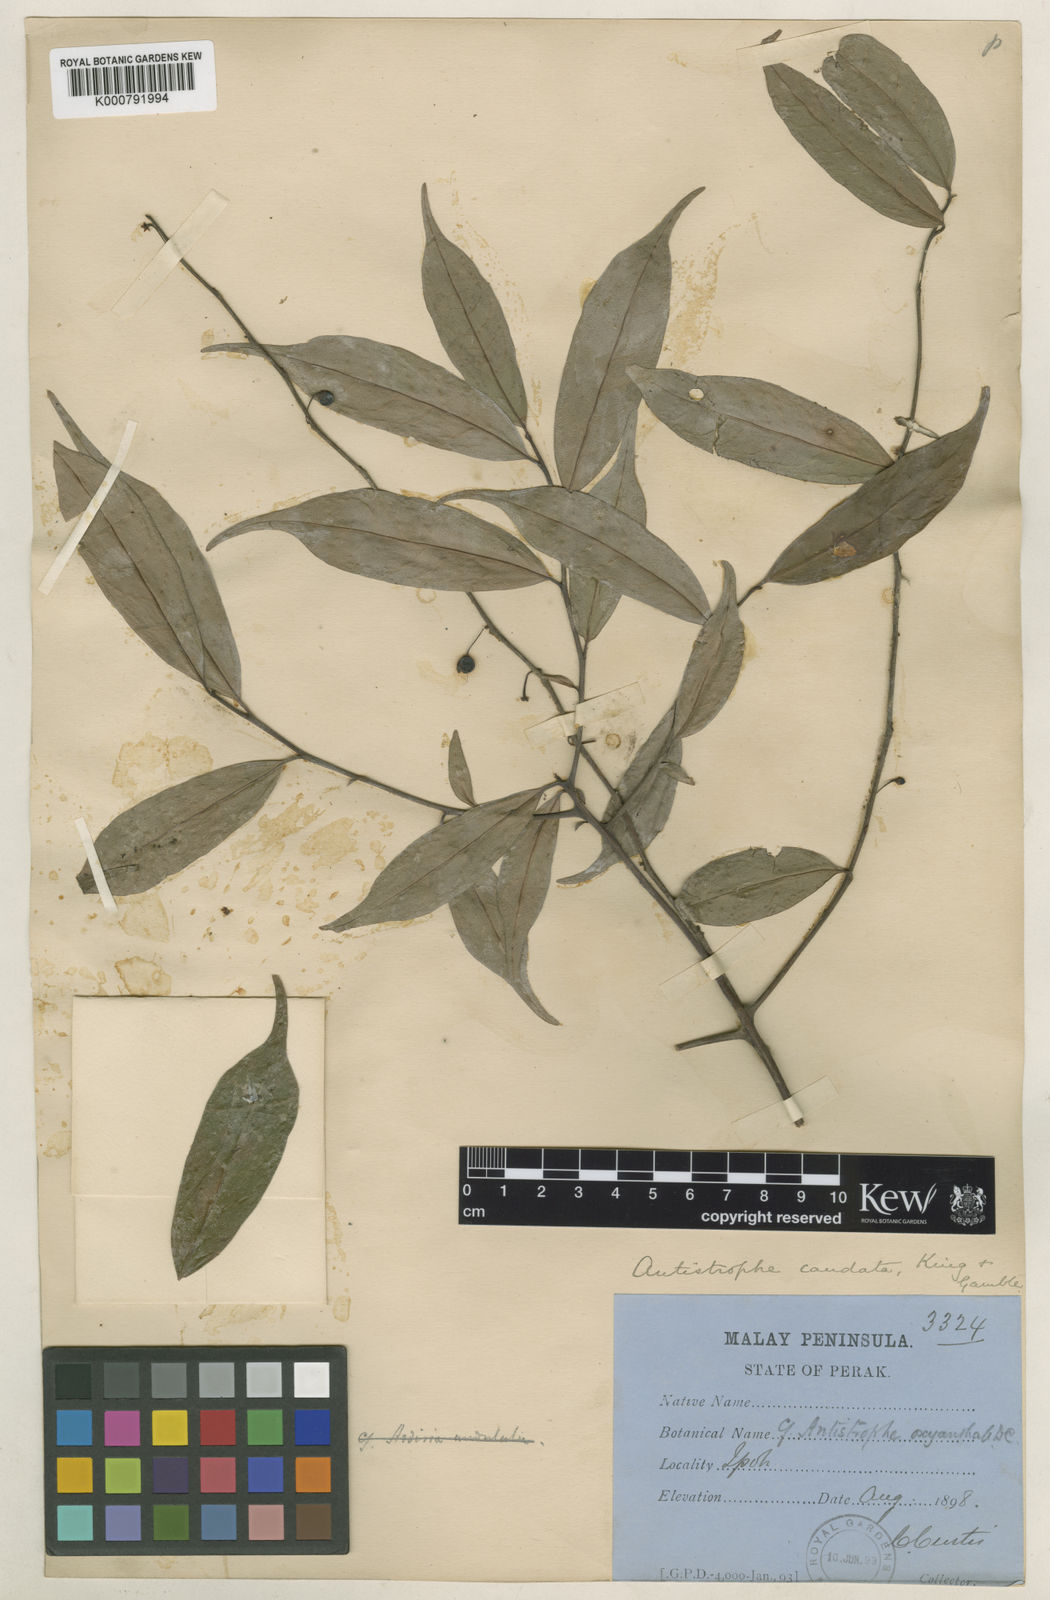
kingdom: Plantae
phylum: Tracheophyta
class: Magnoliopsida
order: Ericales
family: Primulaceae
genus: Antistrophe
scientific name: Antistrophe solanoides
